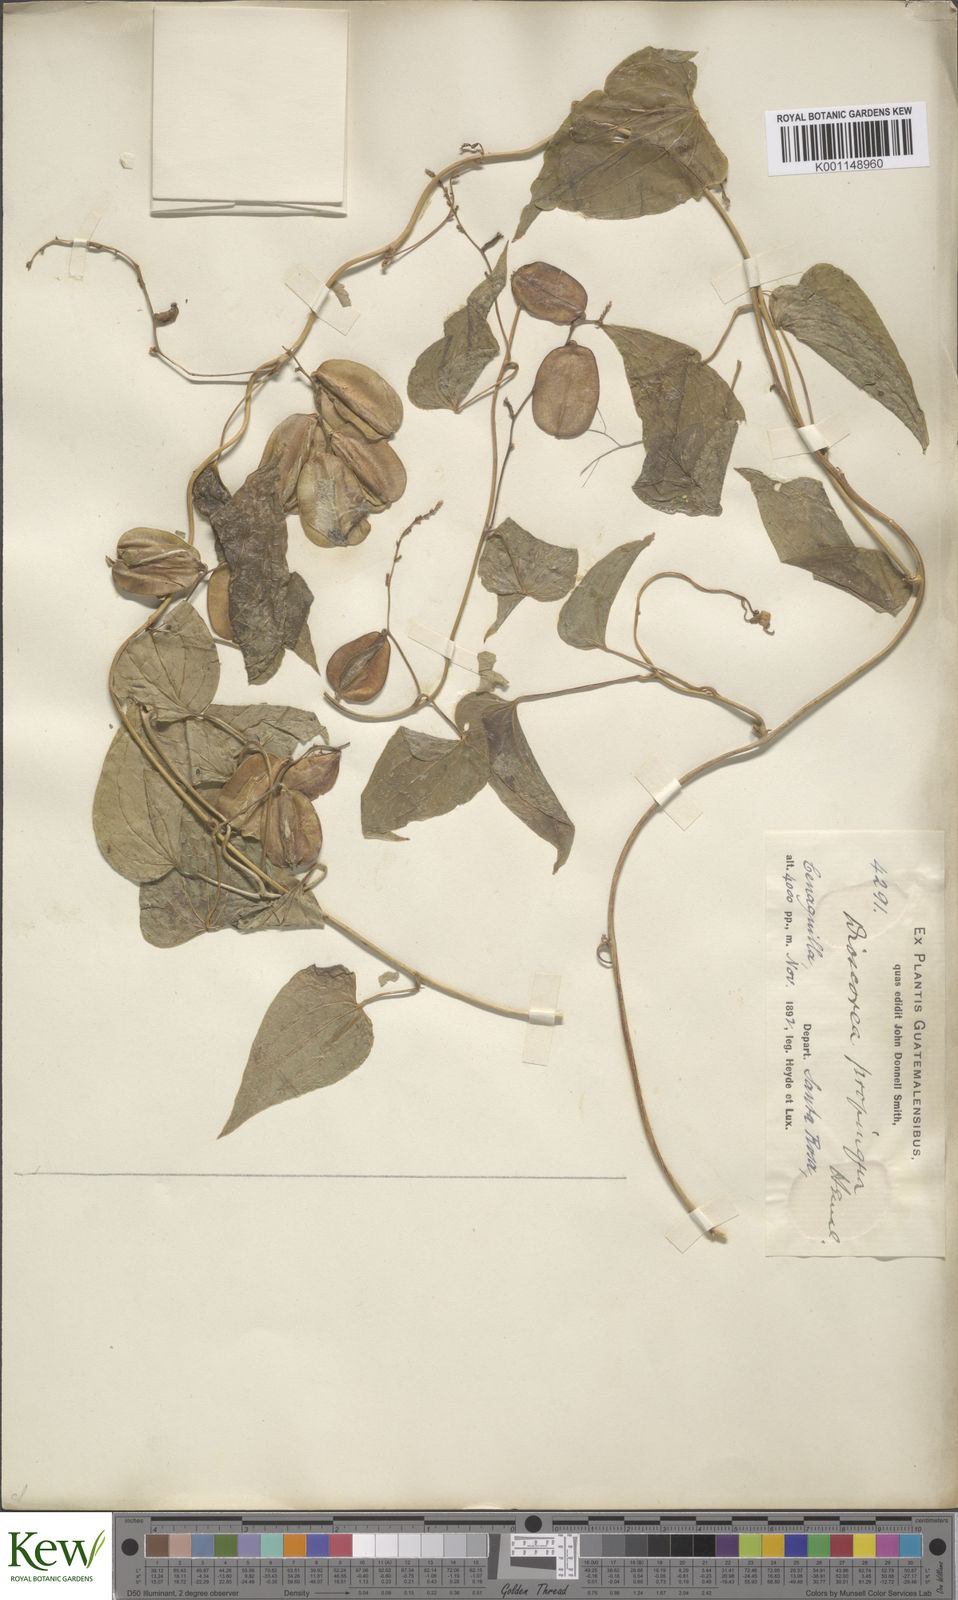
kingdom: Plantae
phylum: Tracheophyta
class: Liliopsida
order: Dioscoreales
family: Dioscoreaceae
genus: Dioscorea
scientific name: Dioscorea mexicana
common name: Mexican yam
